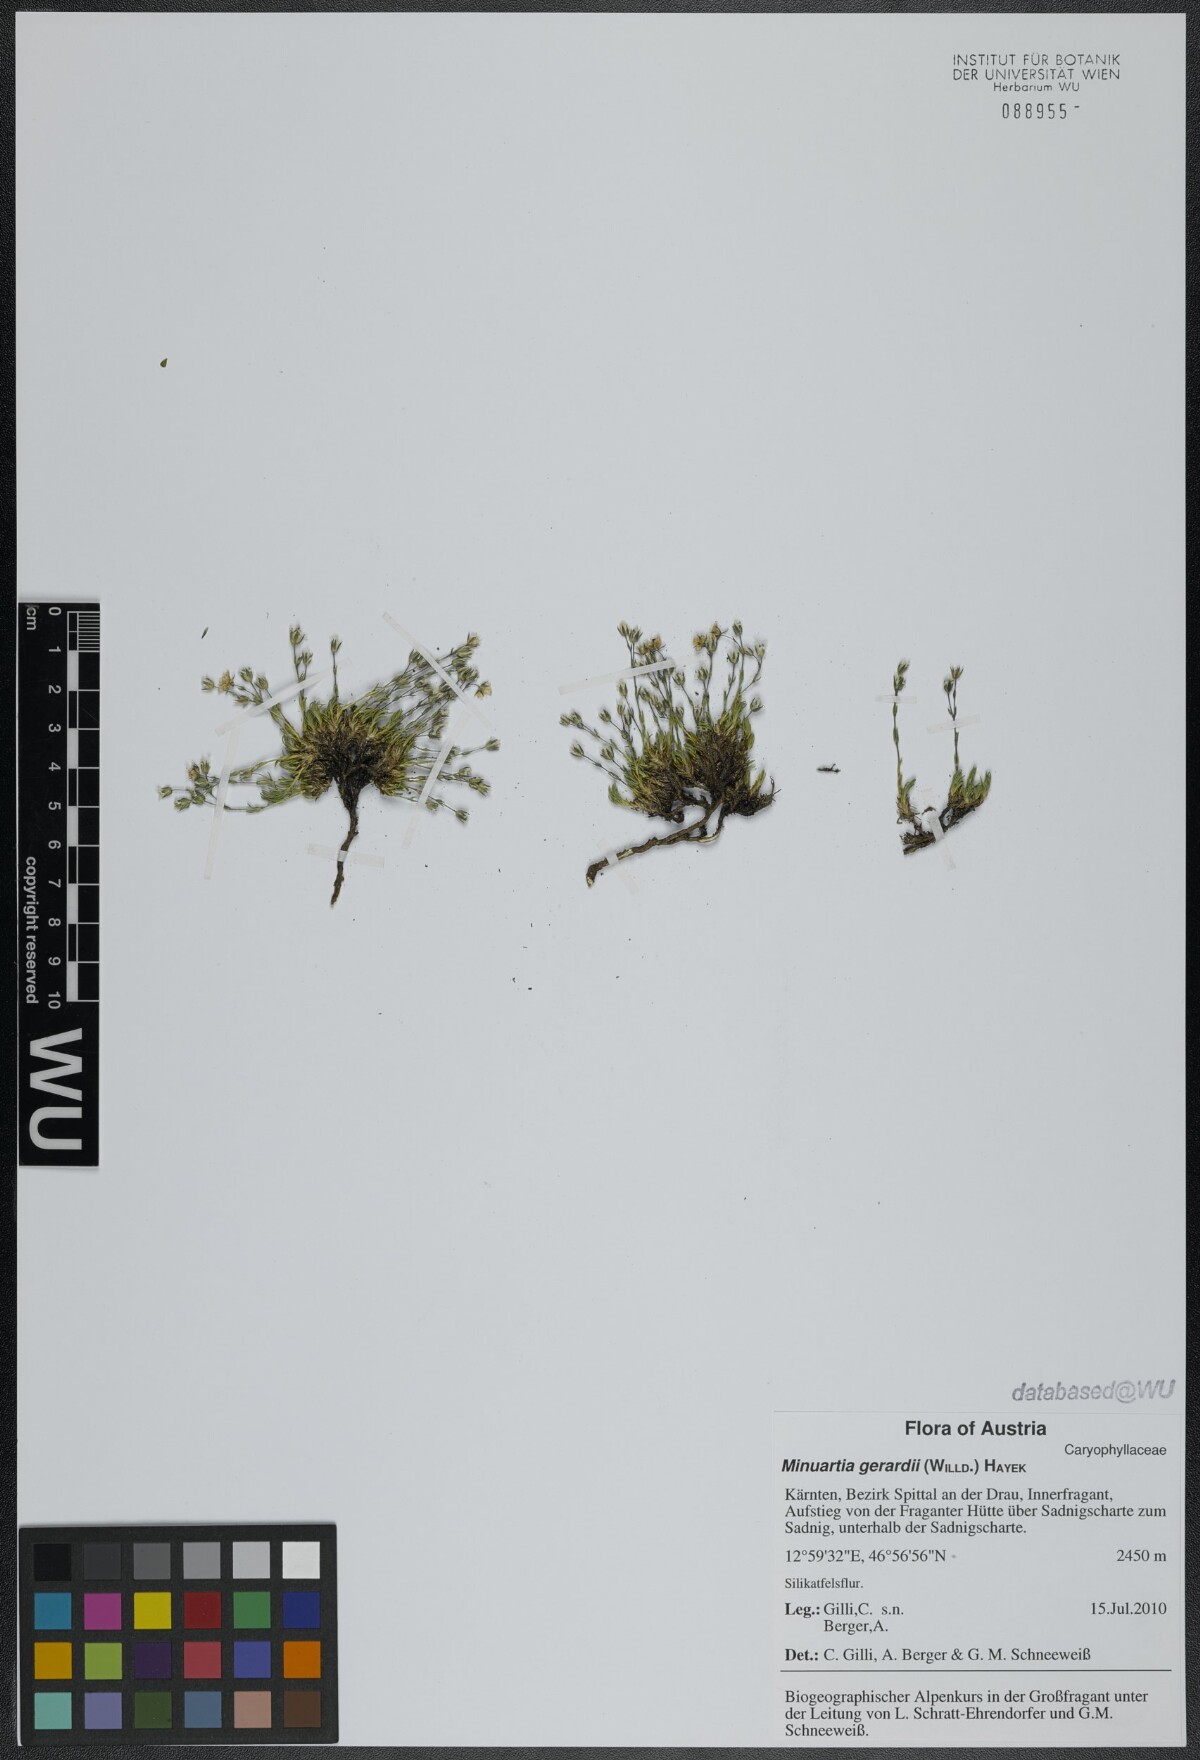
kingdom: Plantae
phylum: Tracheophyta
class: Magnoliopsida
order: Caryophyllales
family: Caryophyllaceae
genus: Sabulina
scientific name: Sabulina verna
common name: Spring sandwort
